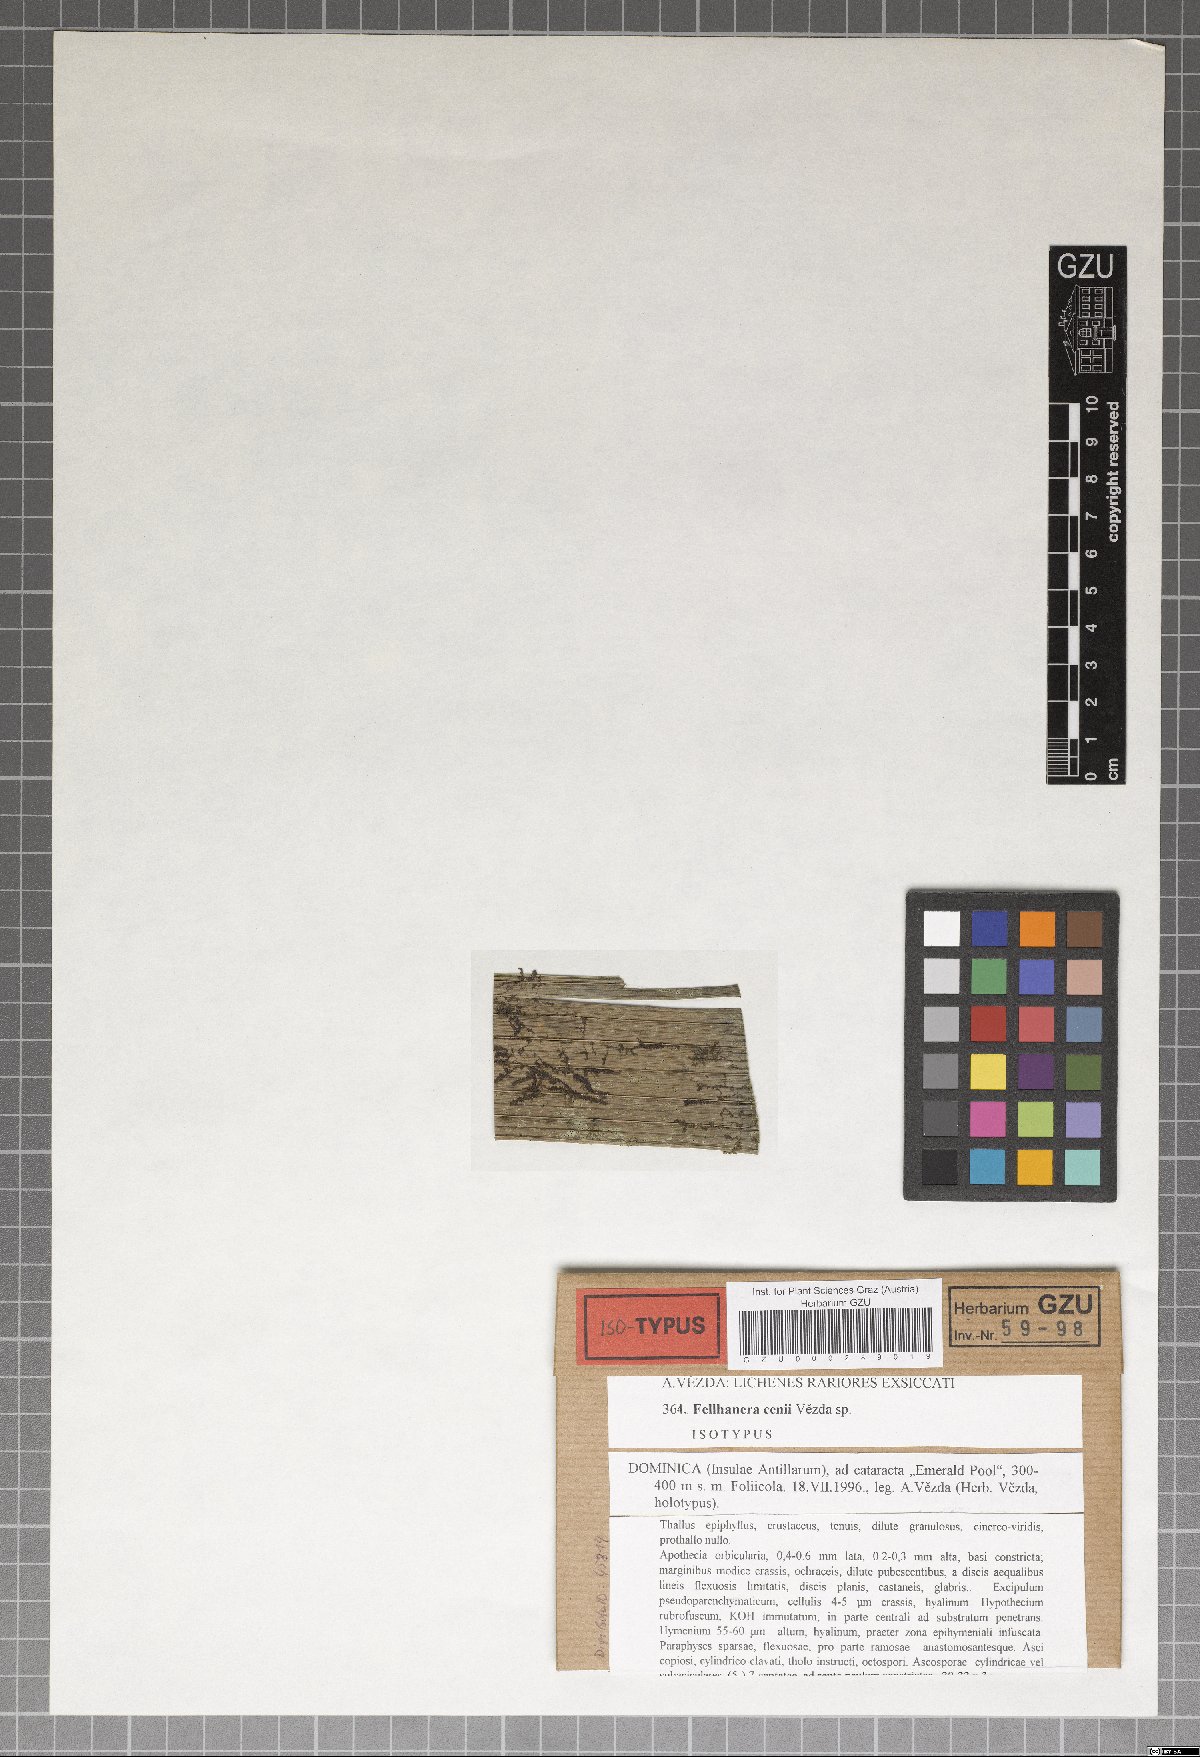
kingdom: Fungi
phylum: Ascomycota
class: Lecanoromycetes
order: Lecanorales
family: Pilocarpaceae
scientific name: Pilocarpaceae
